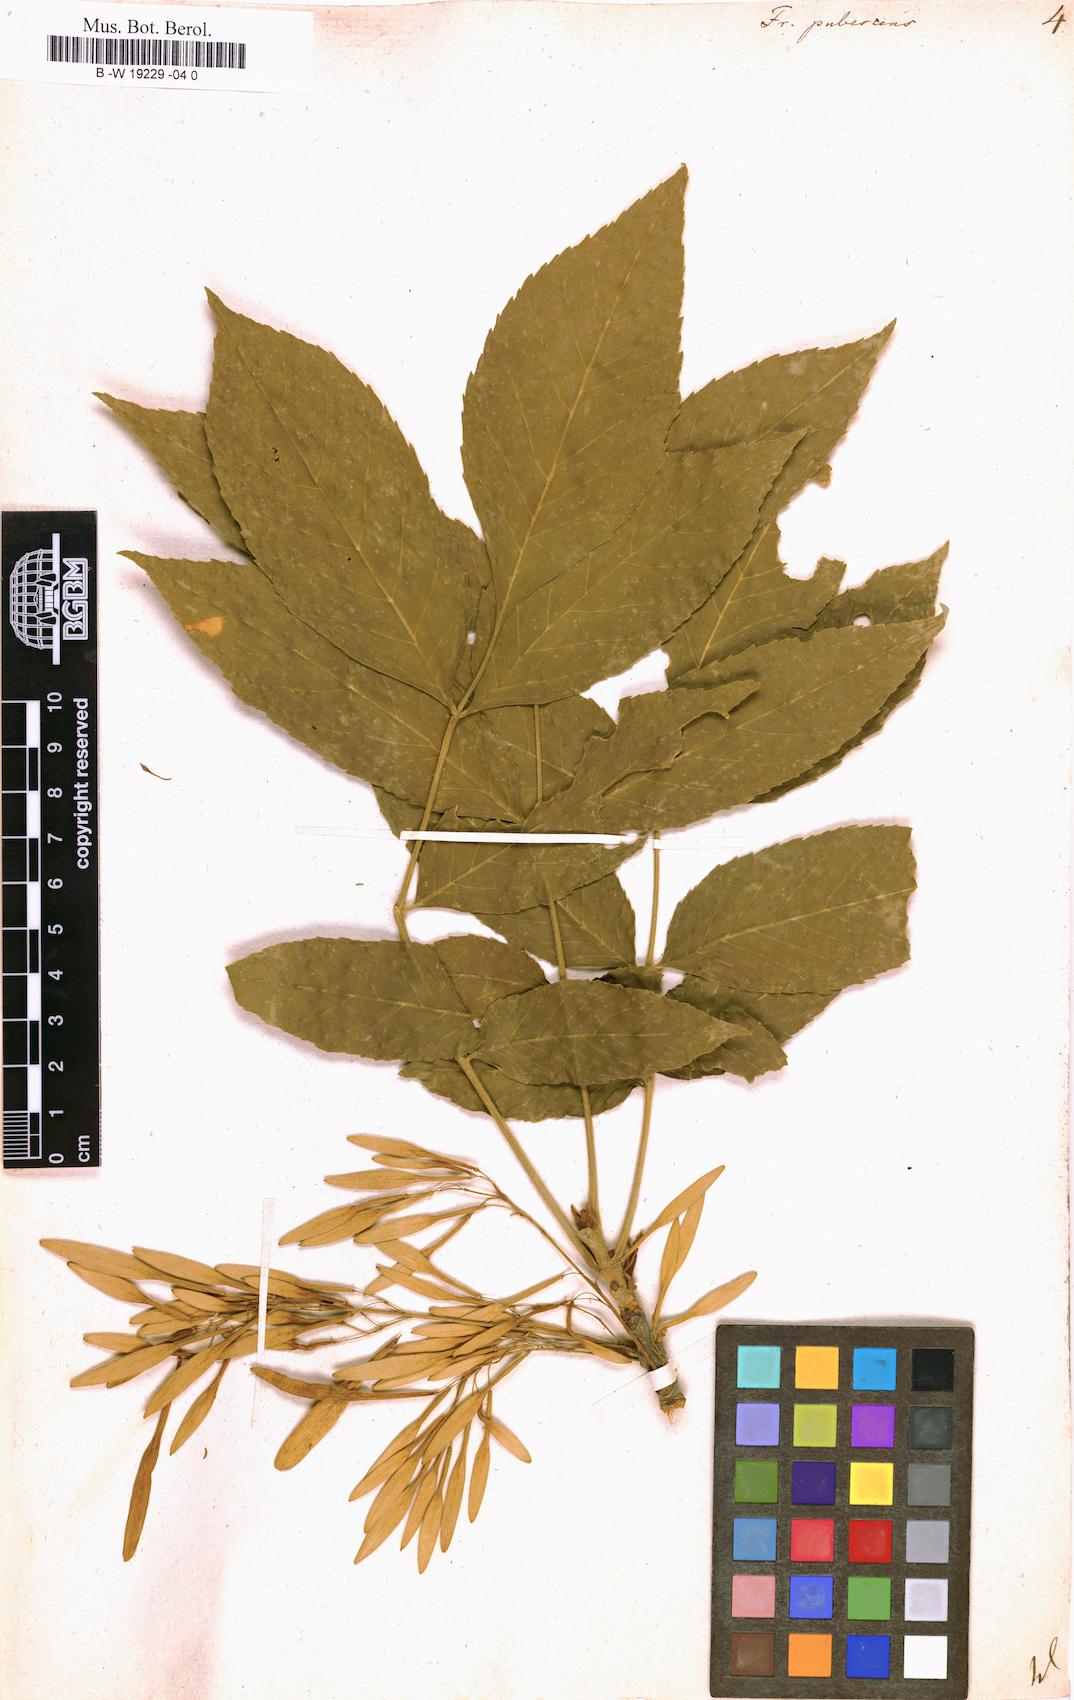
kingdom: Plantae
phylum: Tracheophyta
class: Magnoliopsida
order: Lamiales
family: Oleaceae
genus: Fraxinus
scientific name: Fraxinus
